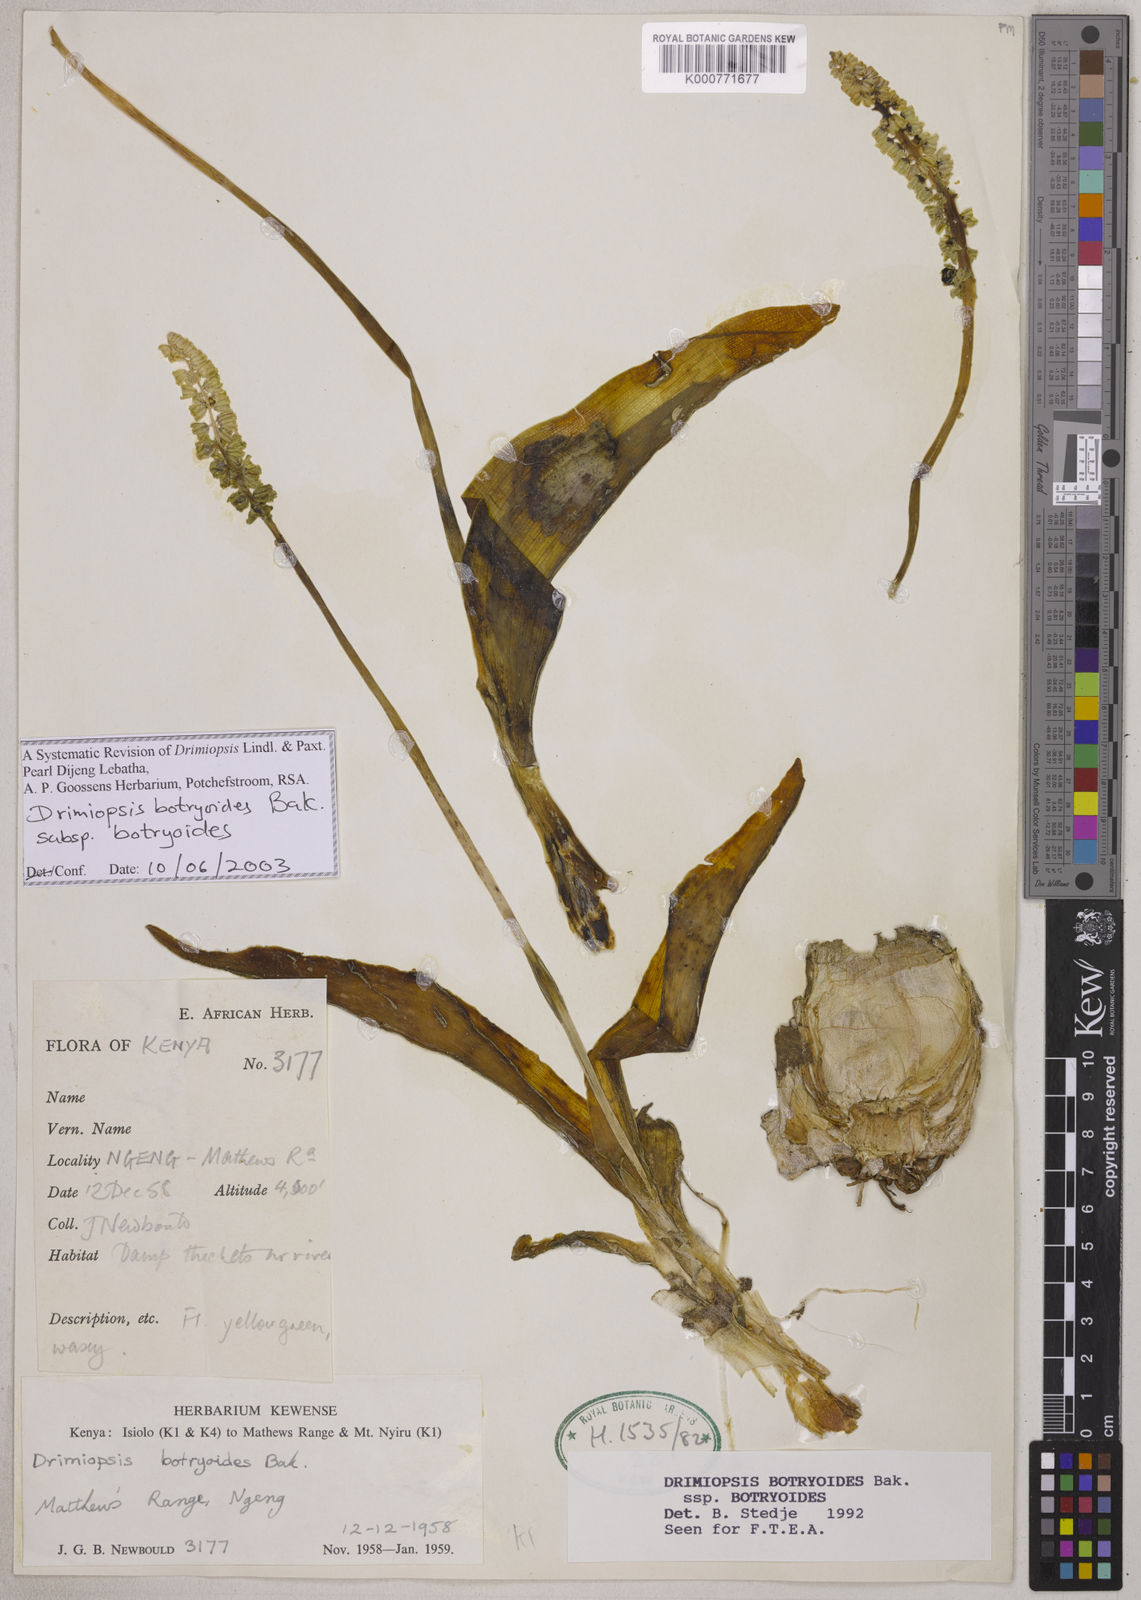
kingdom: Plantae
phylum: Tracheophyta
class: Liliopsida
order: Asparagales
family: Asparagaceae
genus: Drimiopsis
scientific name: Drimiopsis botryoides
